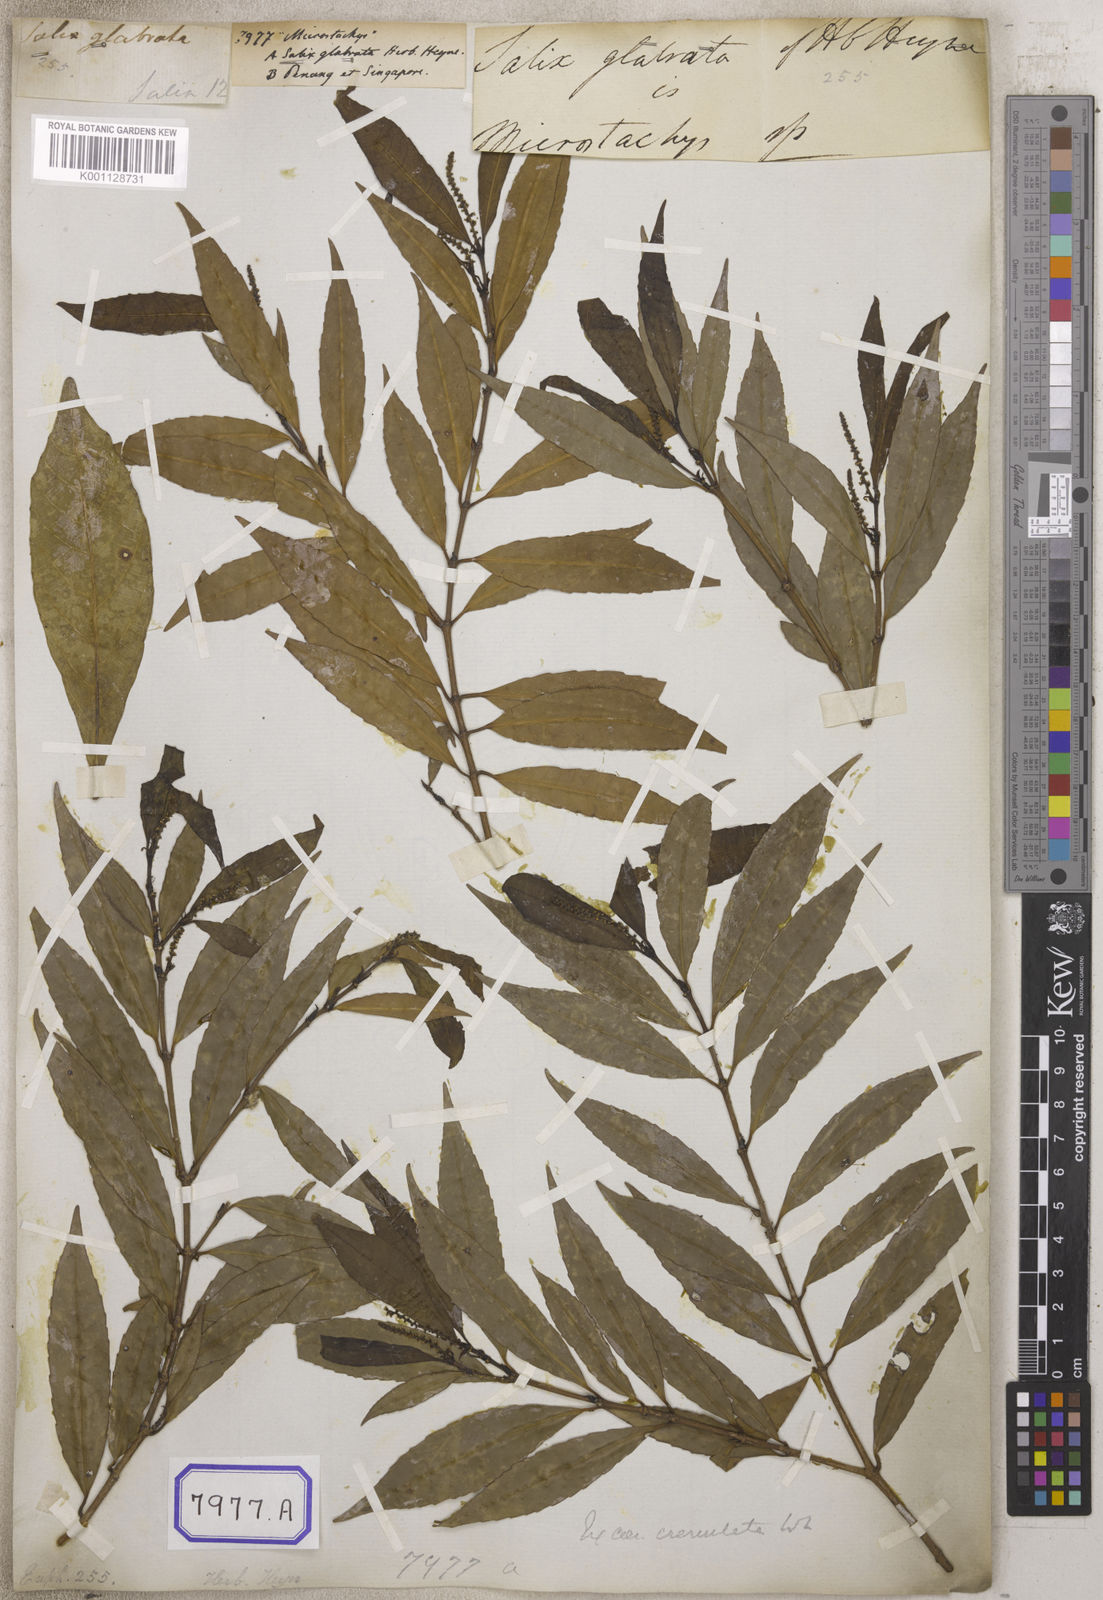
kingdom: Plantae
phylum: Tracheophyta
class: Magnoliopsida
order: Malpighiales
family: Euphorbiaceae
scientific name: Euphorbiaceae
